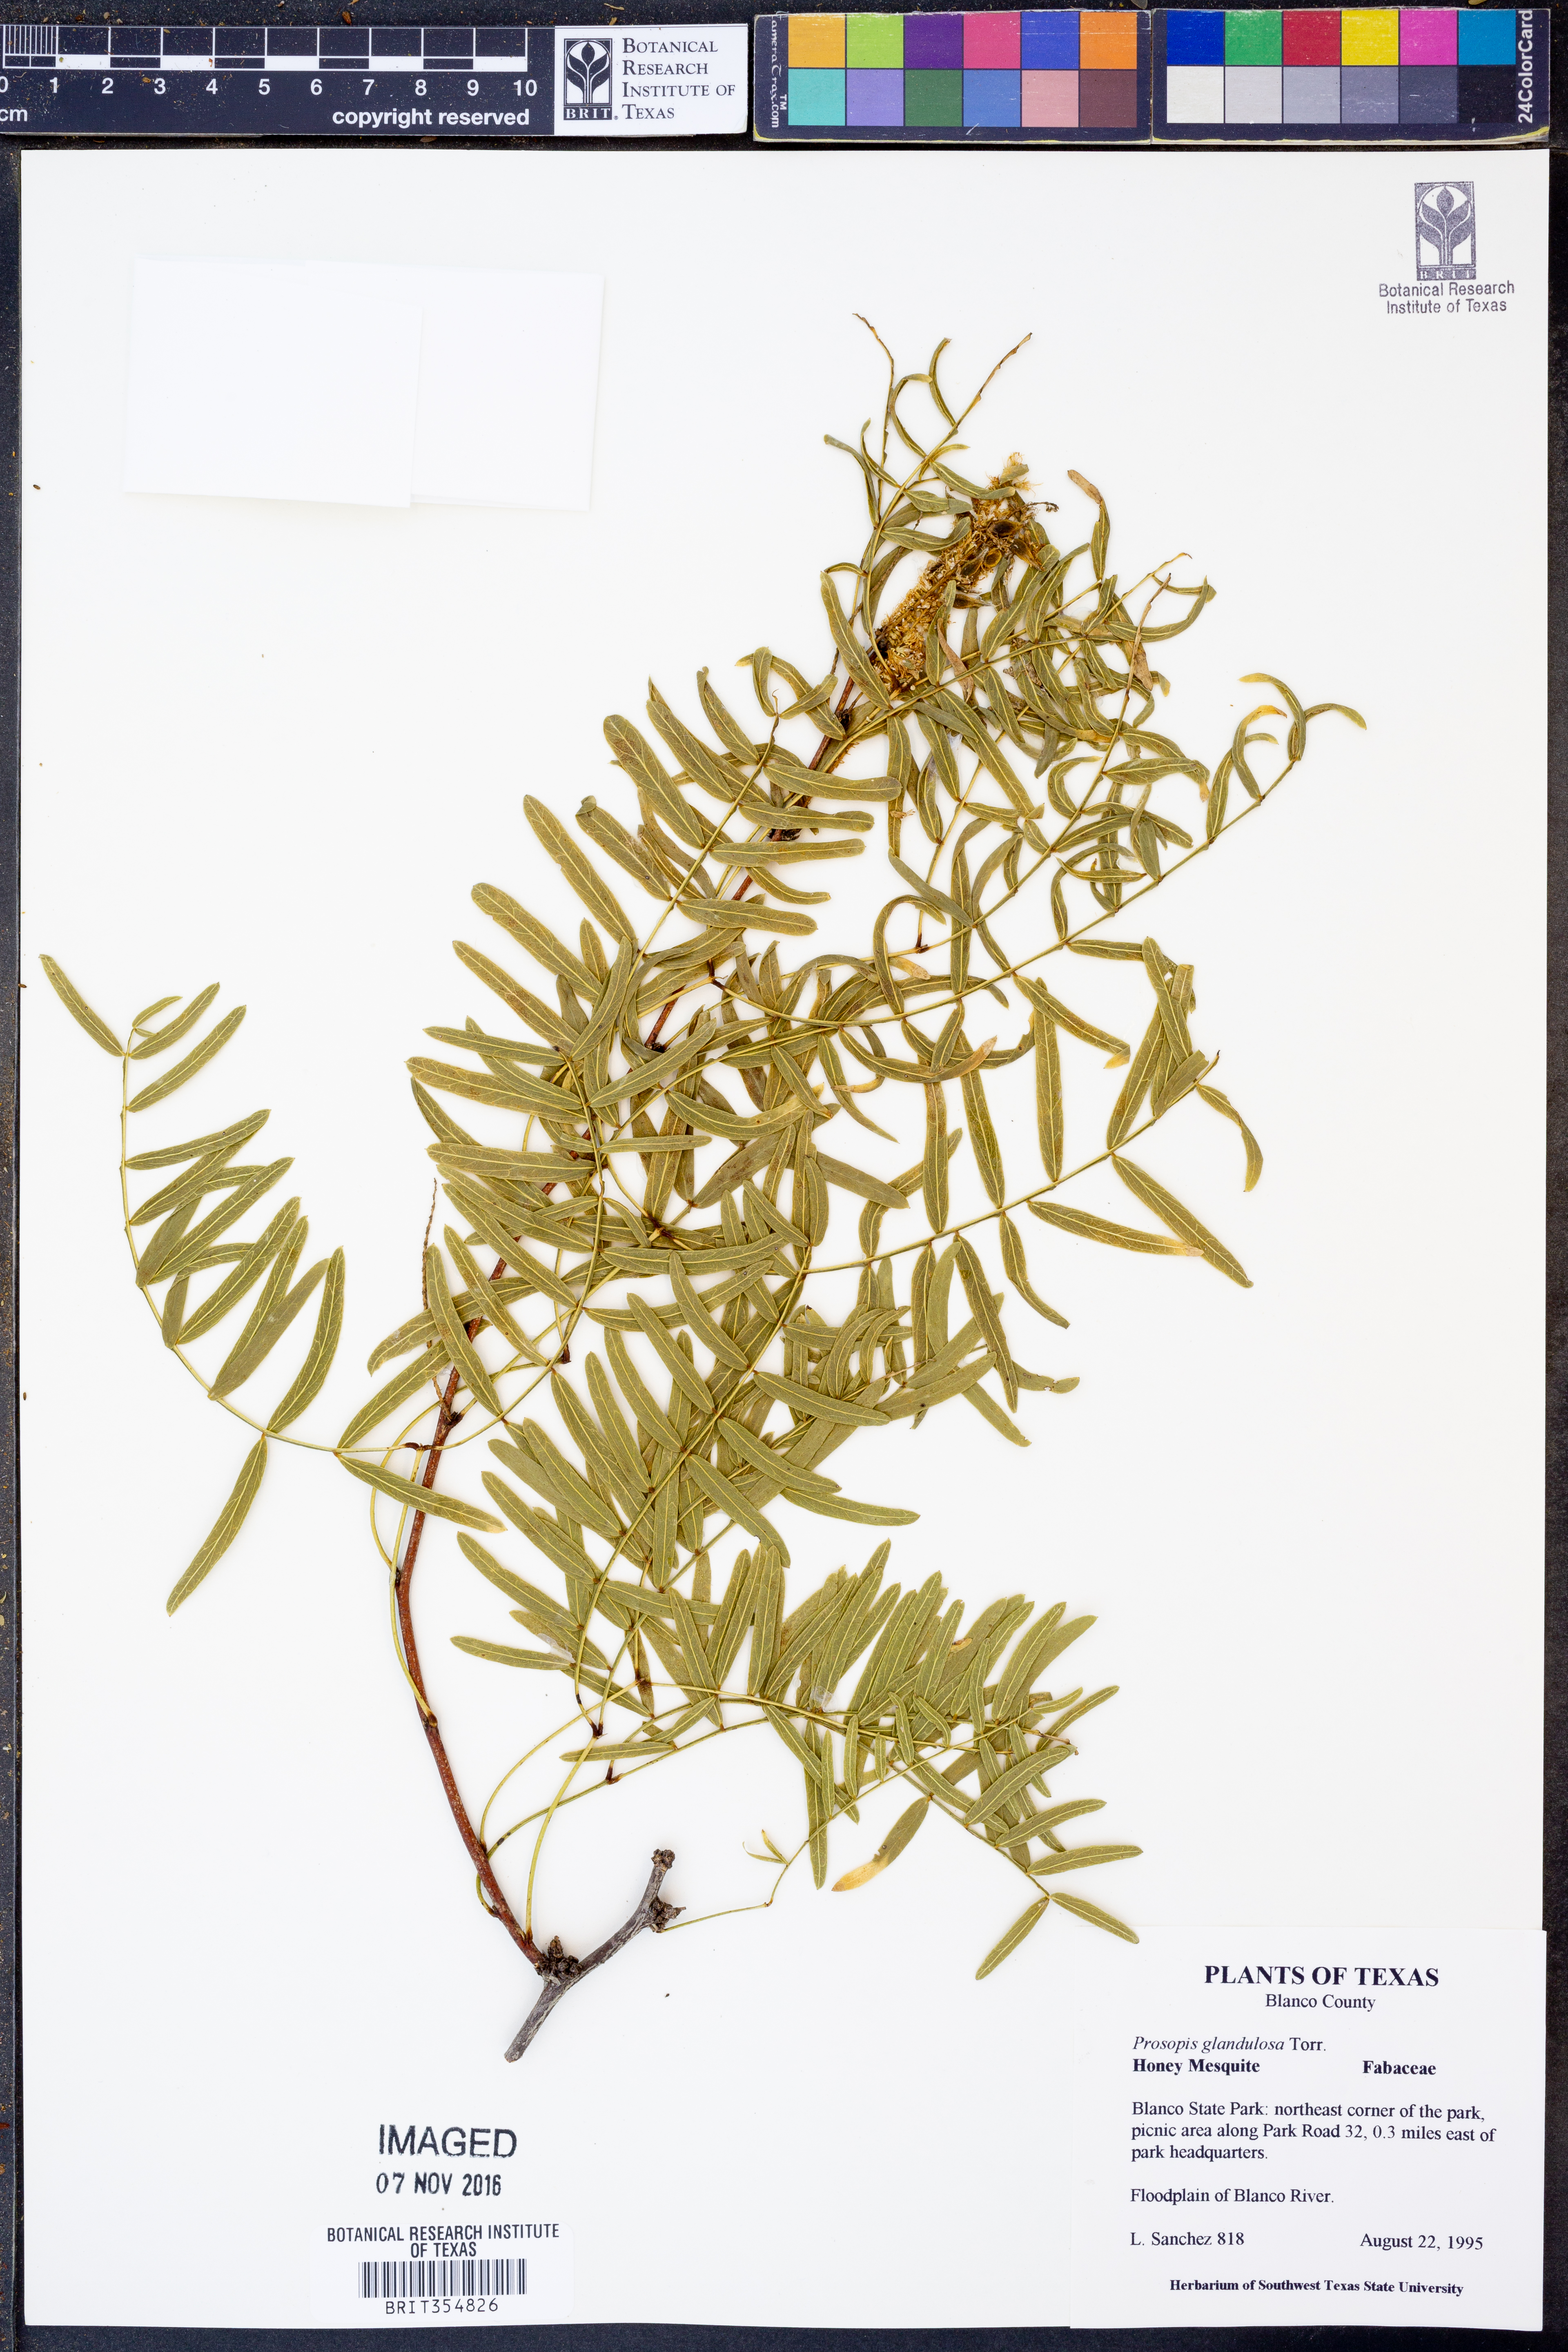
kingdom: Plantae
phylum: Tracheophyta
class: Magnoliopsida
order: Fabales
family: Fabaceae
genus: Prosopis
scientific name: Prosopis glandulosa
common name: Honey mesquite
